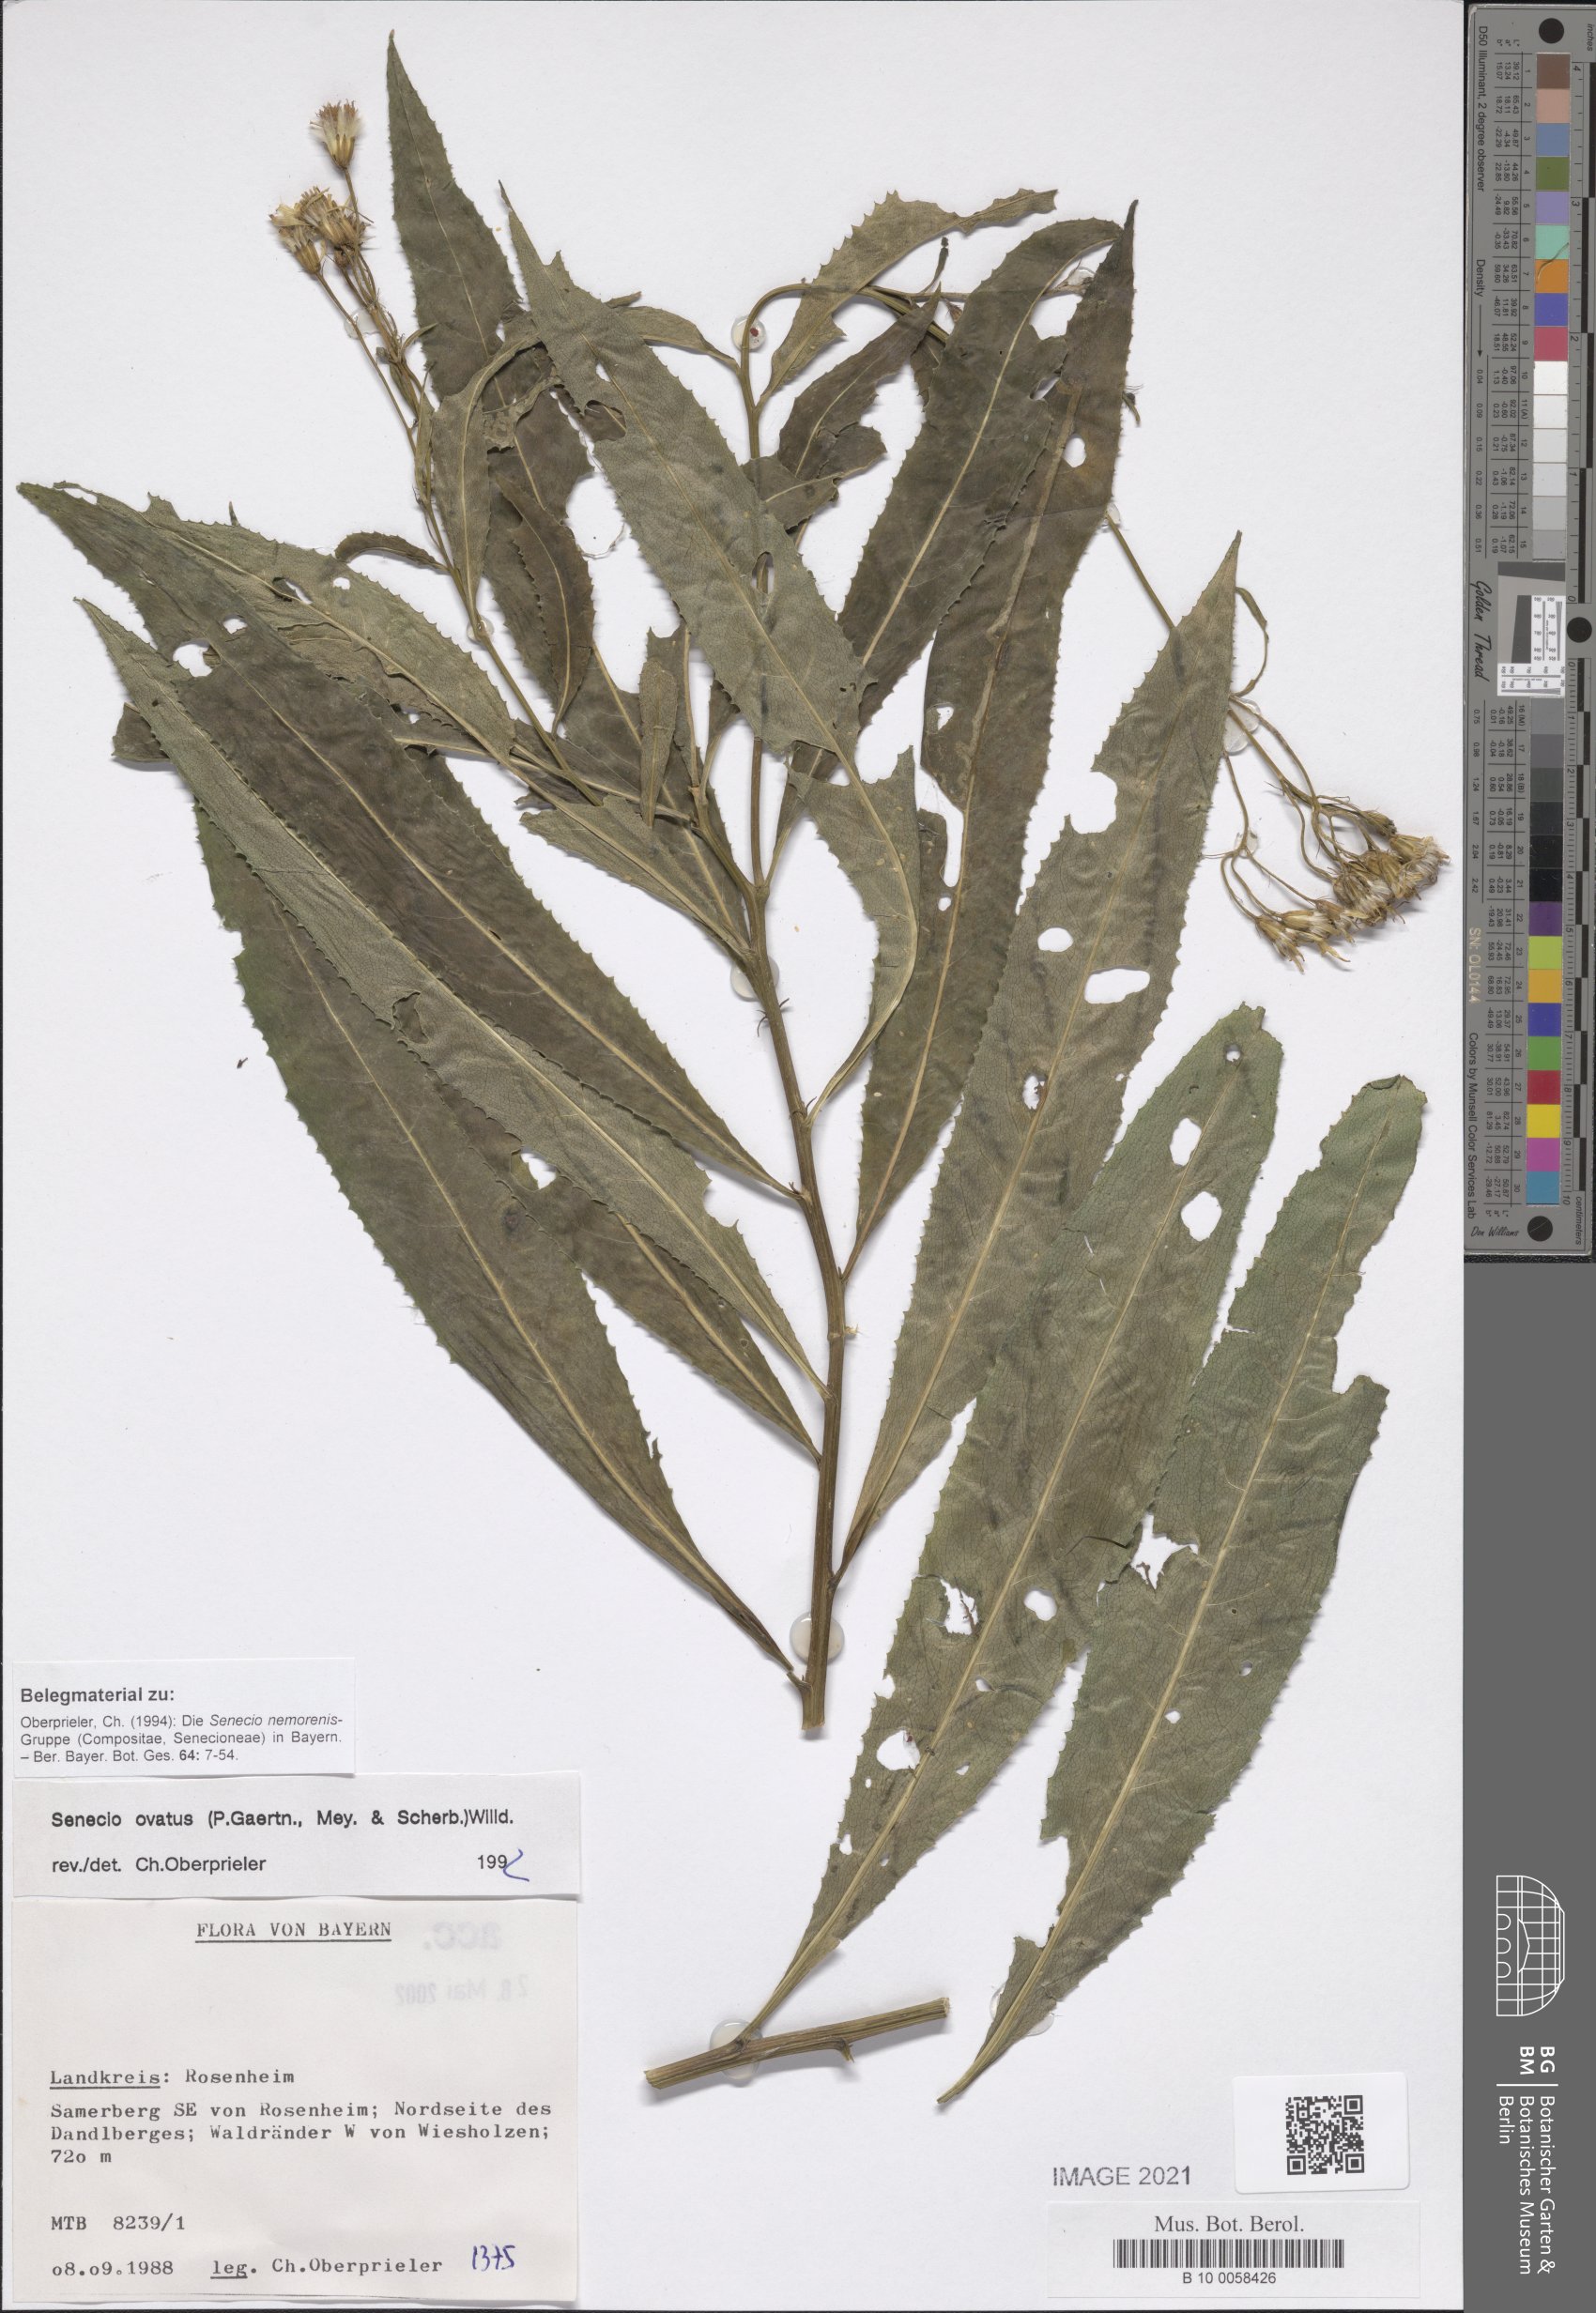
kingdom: Plantae
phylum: Tracheophyta
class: Magnoliopsida
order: Asterales
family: Asteraceae
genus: Senecio
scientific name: Senecio ovatus
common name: Wood ragwort
